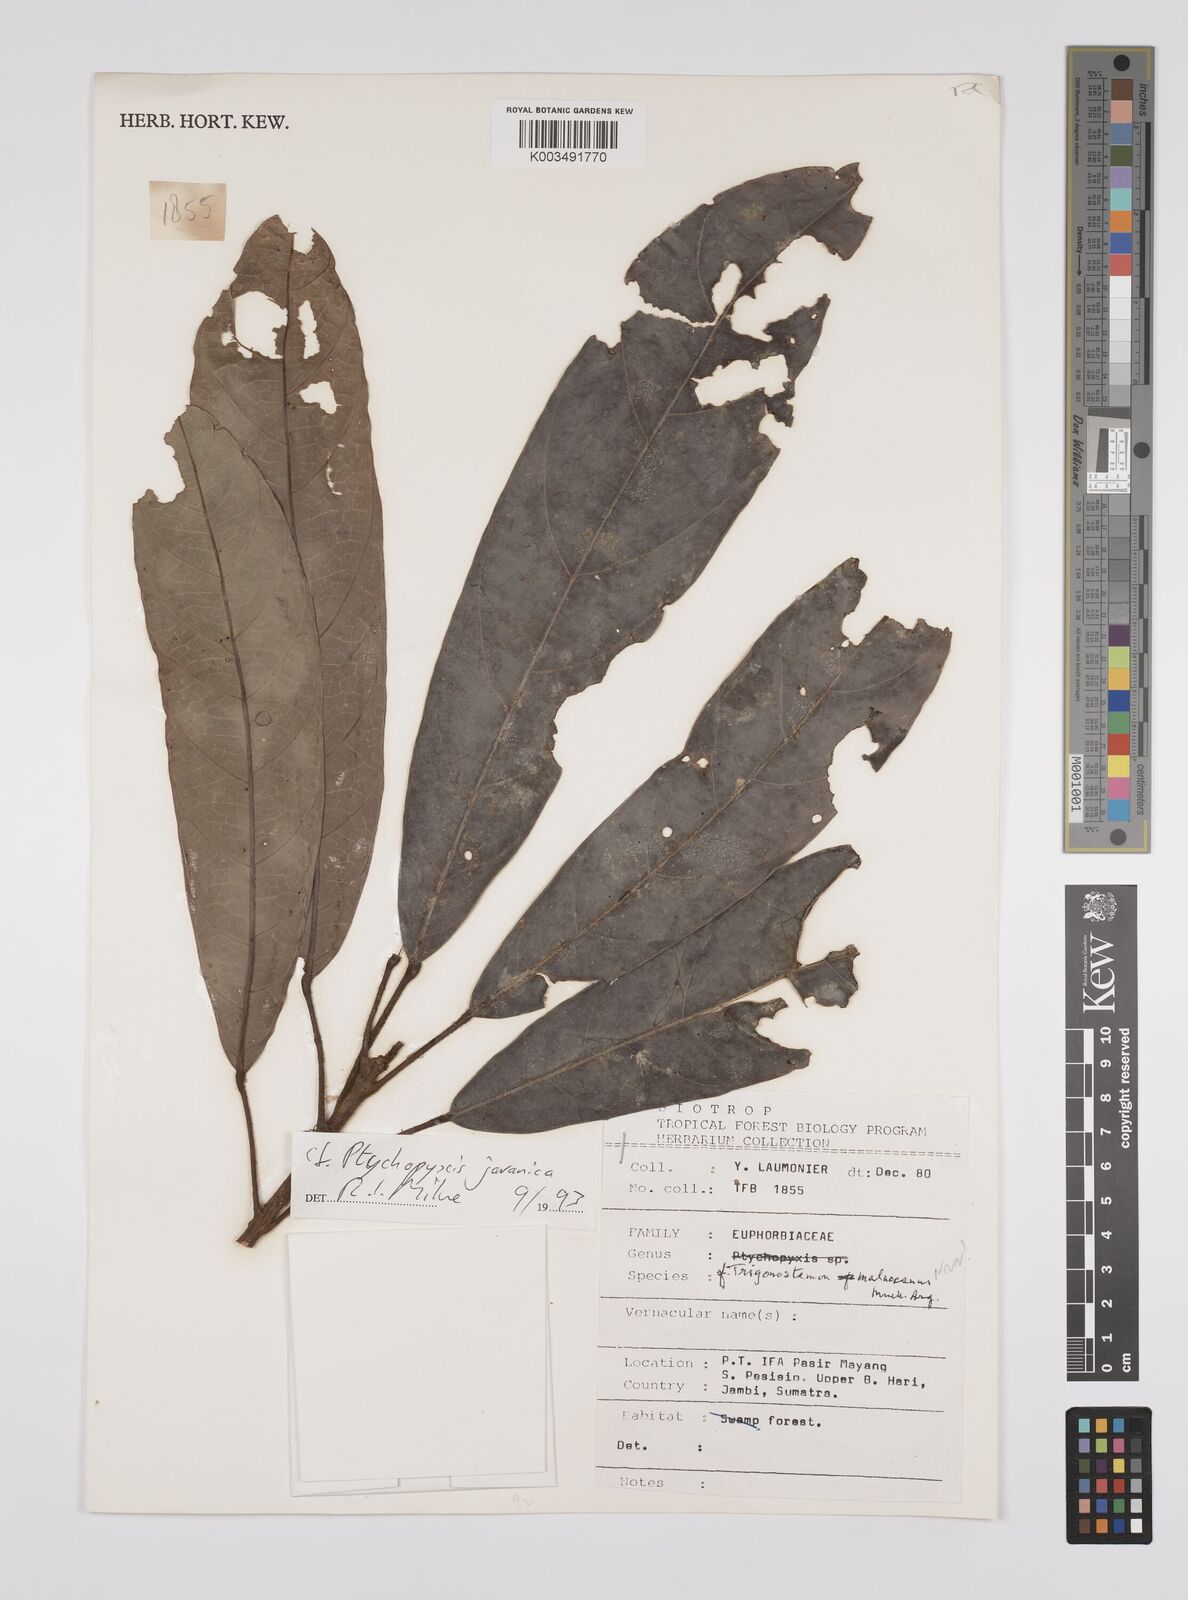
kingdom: Plantae
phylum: Tracheophyta
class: Magnoliopsida
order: Malpighiales
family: Euphorbiaceae
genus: Ptychopyxis
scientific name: Ptychopyxis javanica
